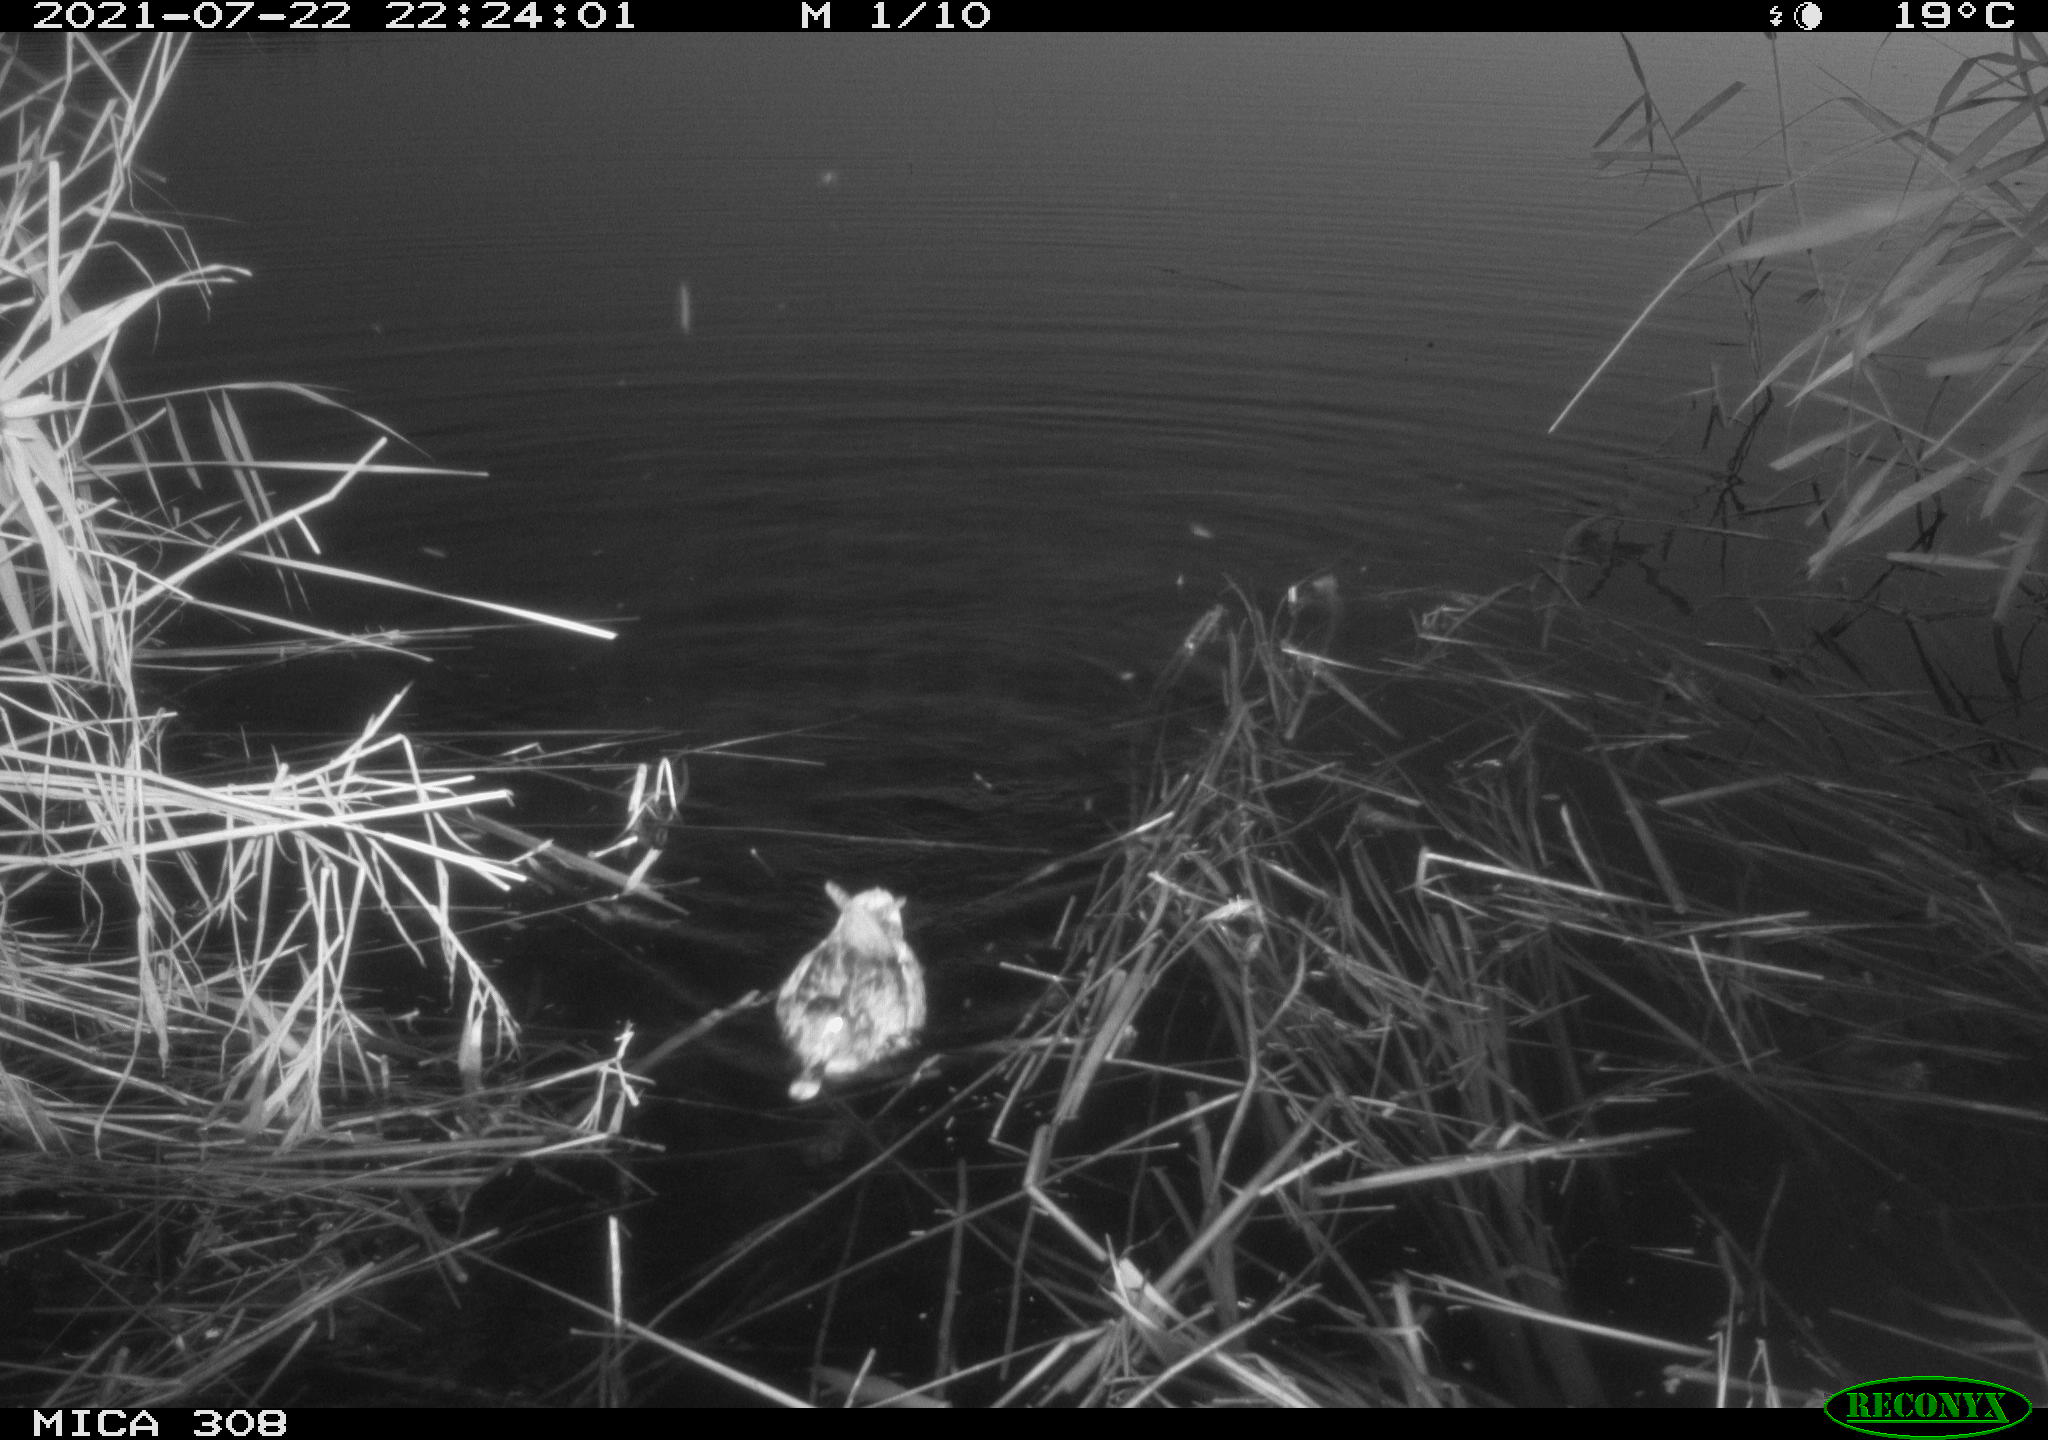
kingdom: Animalia
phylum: Chordata
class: Aves
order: Anseriformes
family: Anatidae
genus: Anas
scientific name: Anas platyrhynchos
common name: Mallard
